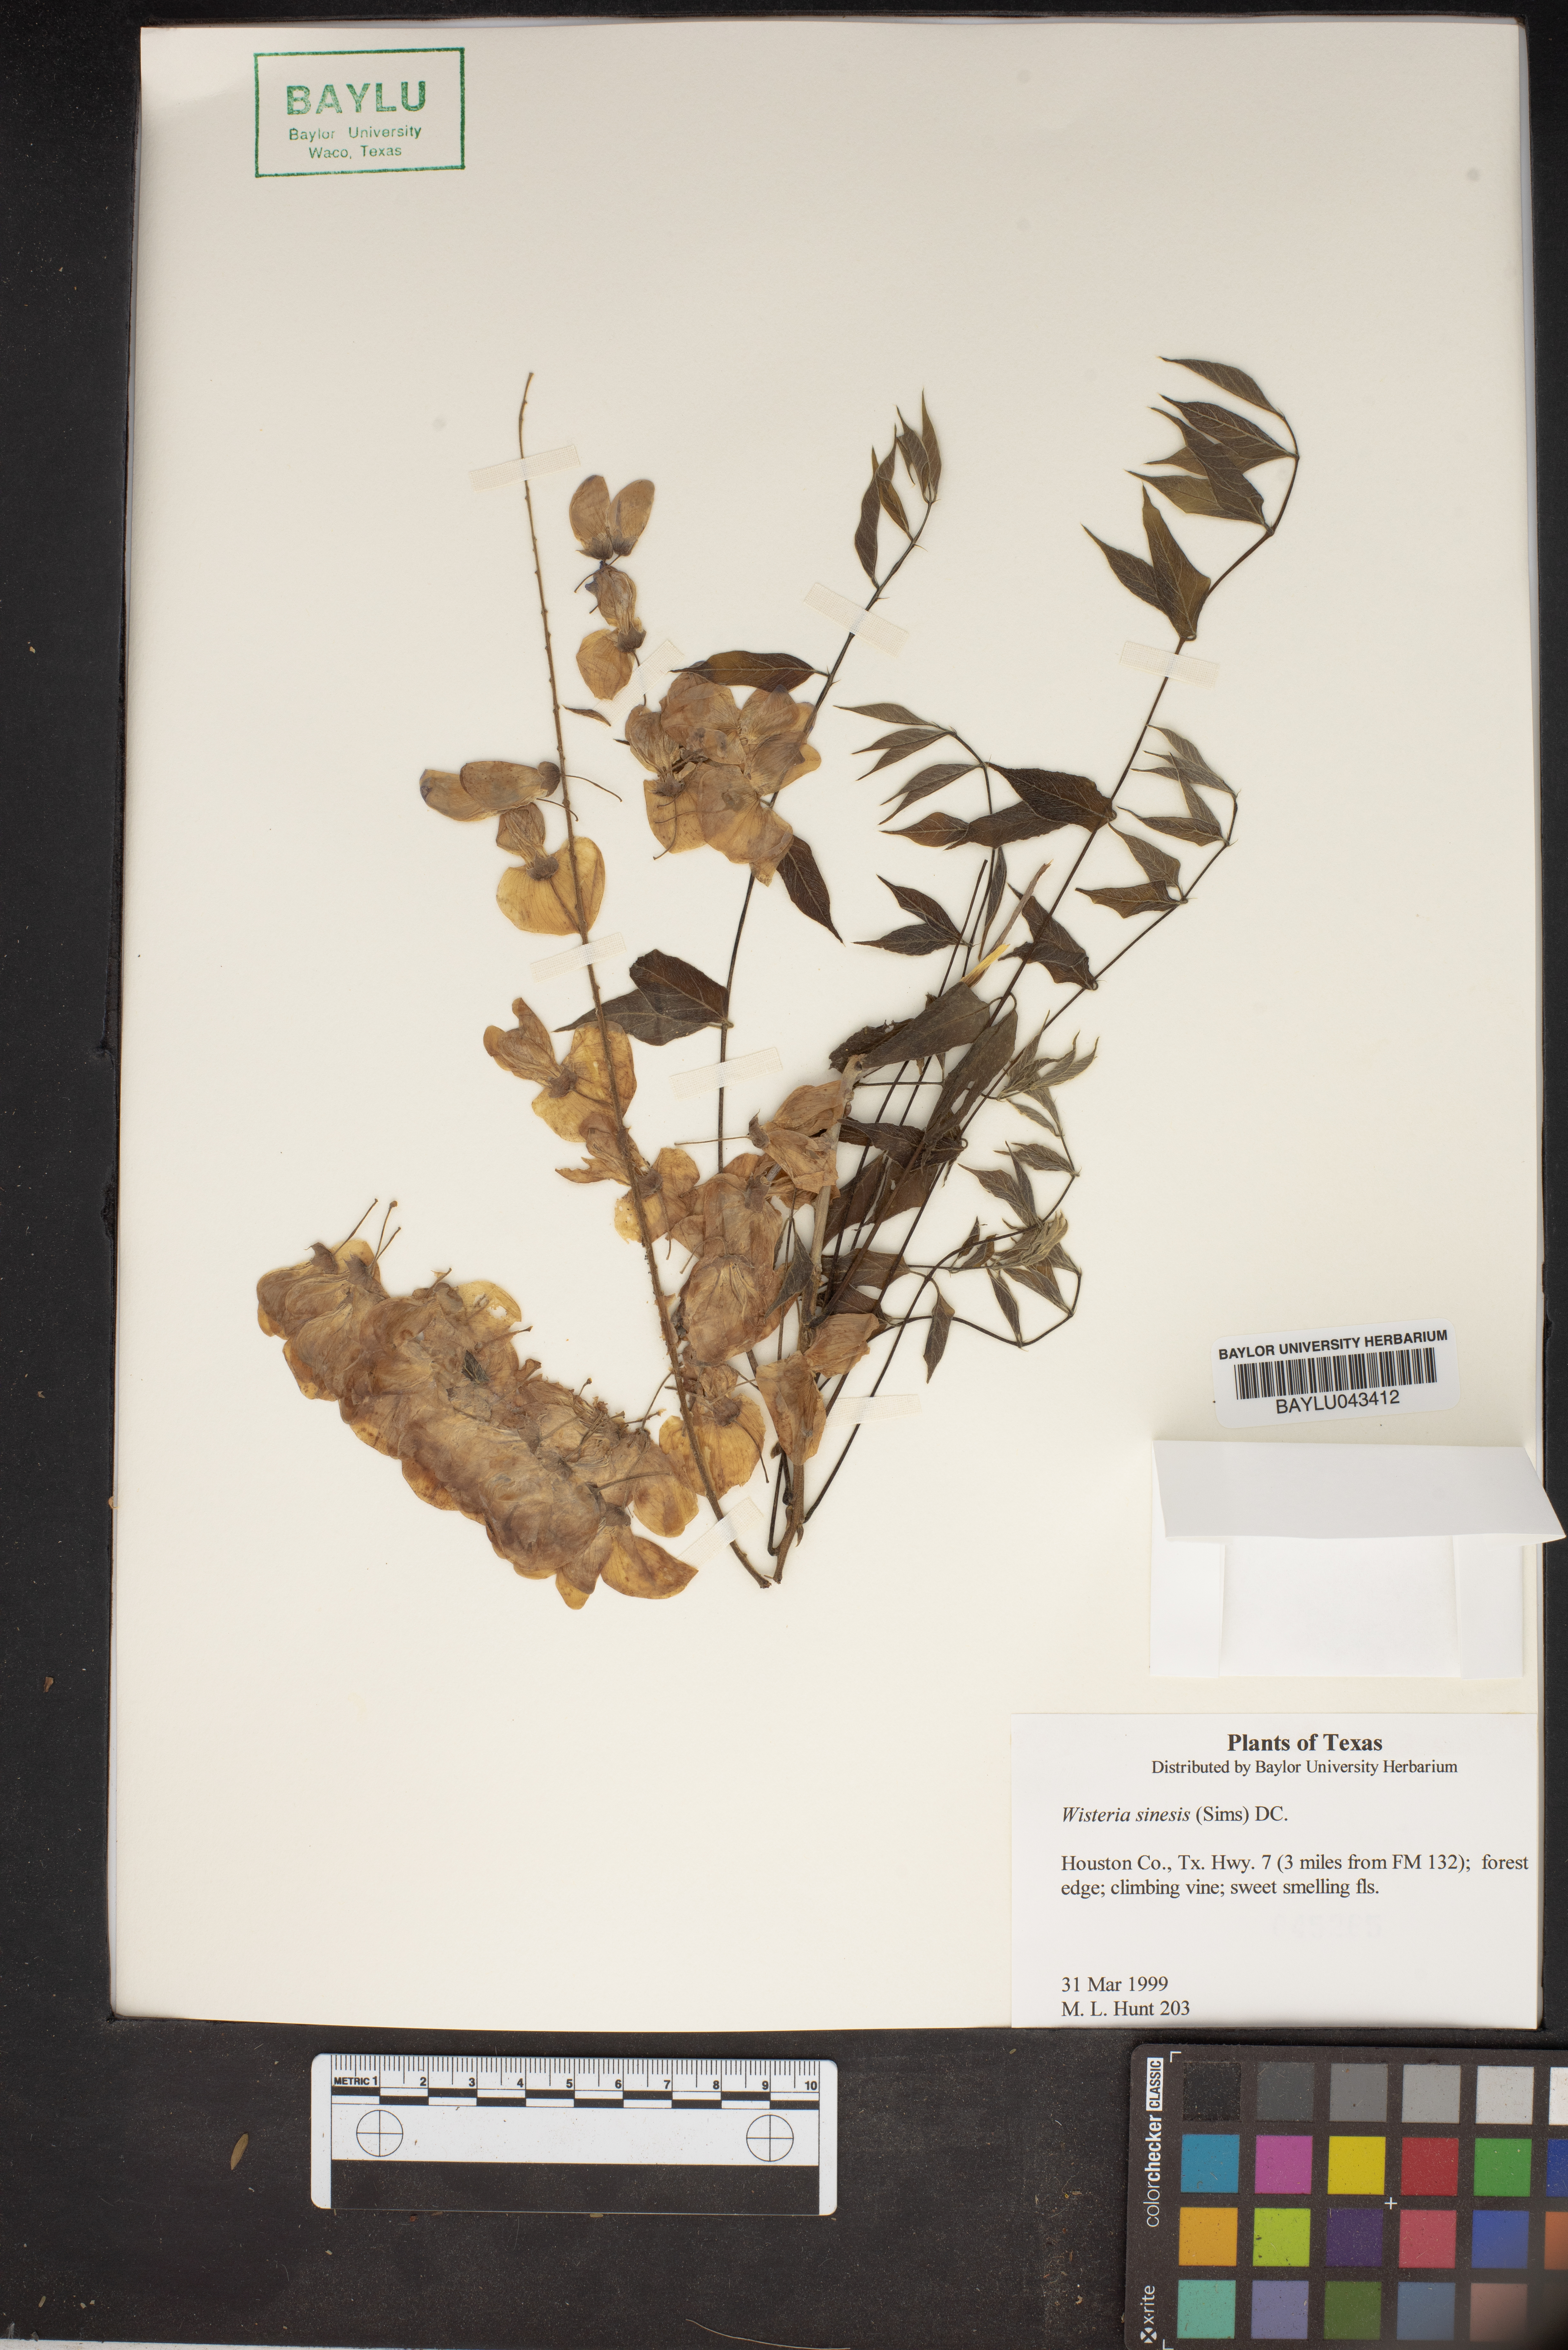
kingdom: Plantae
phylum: Tracheophyta
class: Magnoliopsida
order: Fabales
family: Fabaceae
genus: Wisteria
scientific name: Wisteria sinensis
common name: Chinese wisteria
